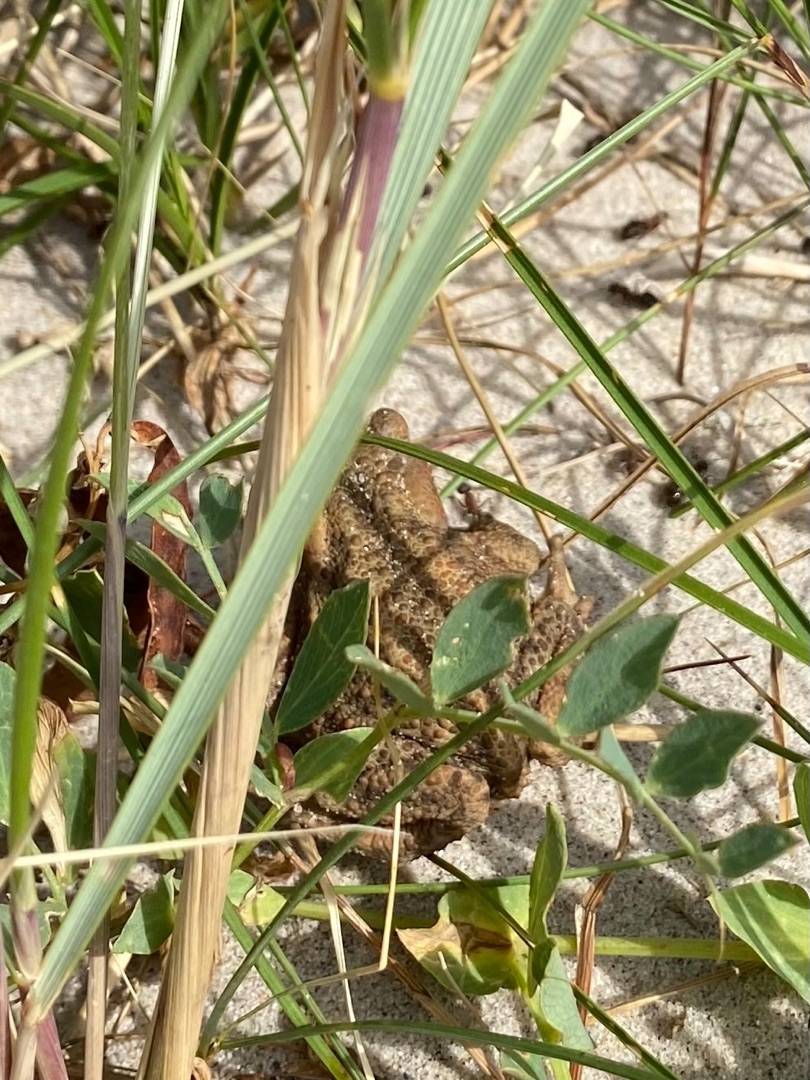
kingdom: Animalia
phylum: Chordata
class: Amphibia
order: Anura
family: Bufonidae
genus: Bufo
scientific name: Bufo bufo
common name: Skrubtudse
